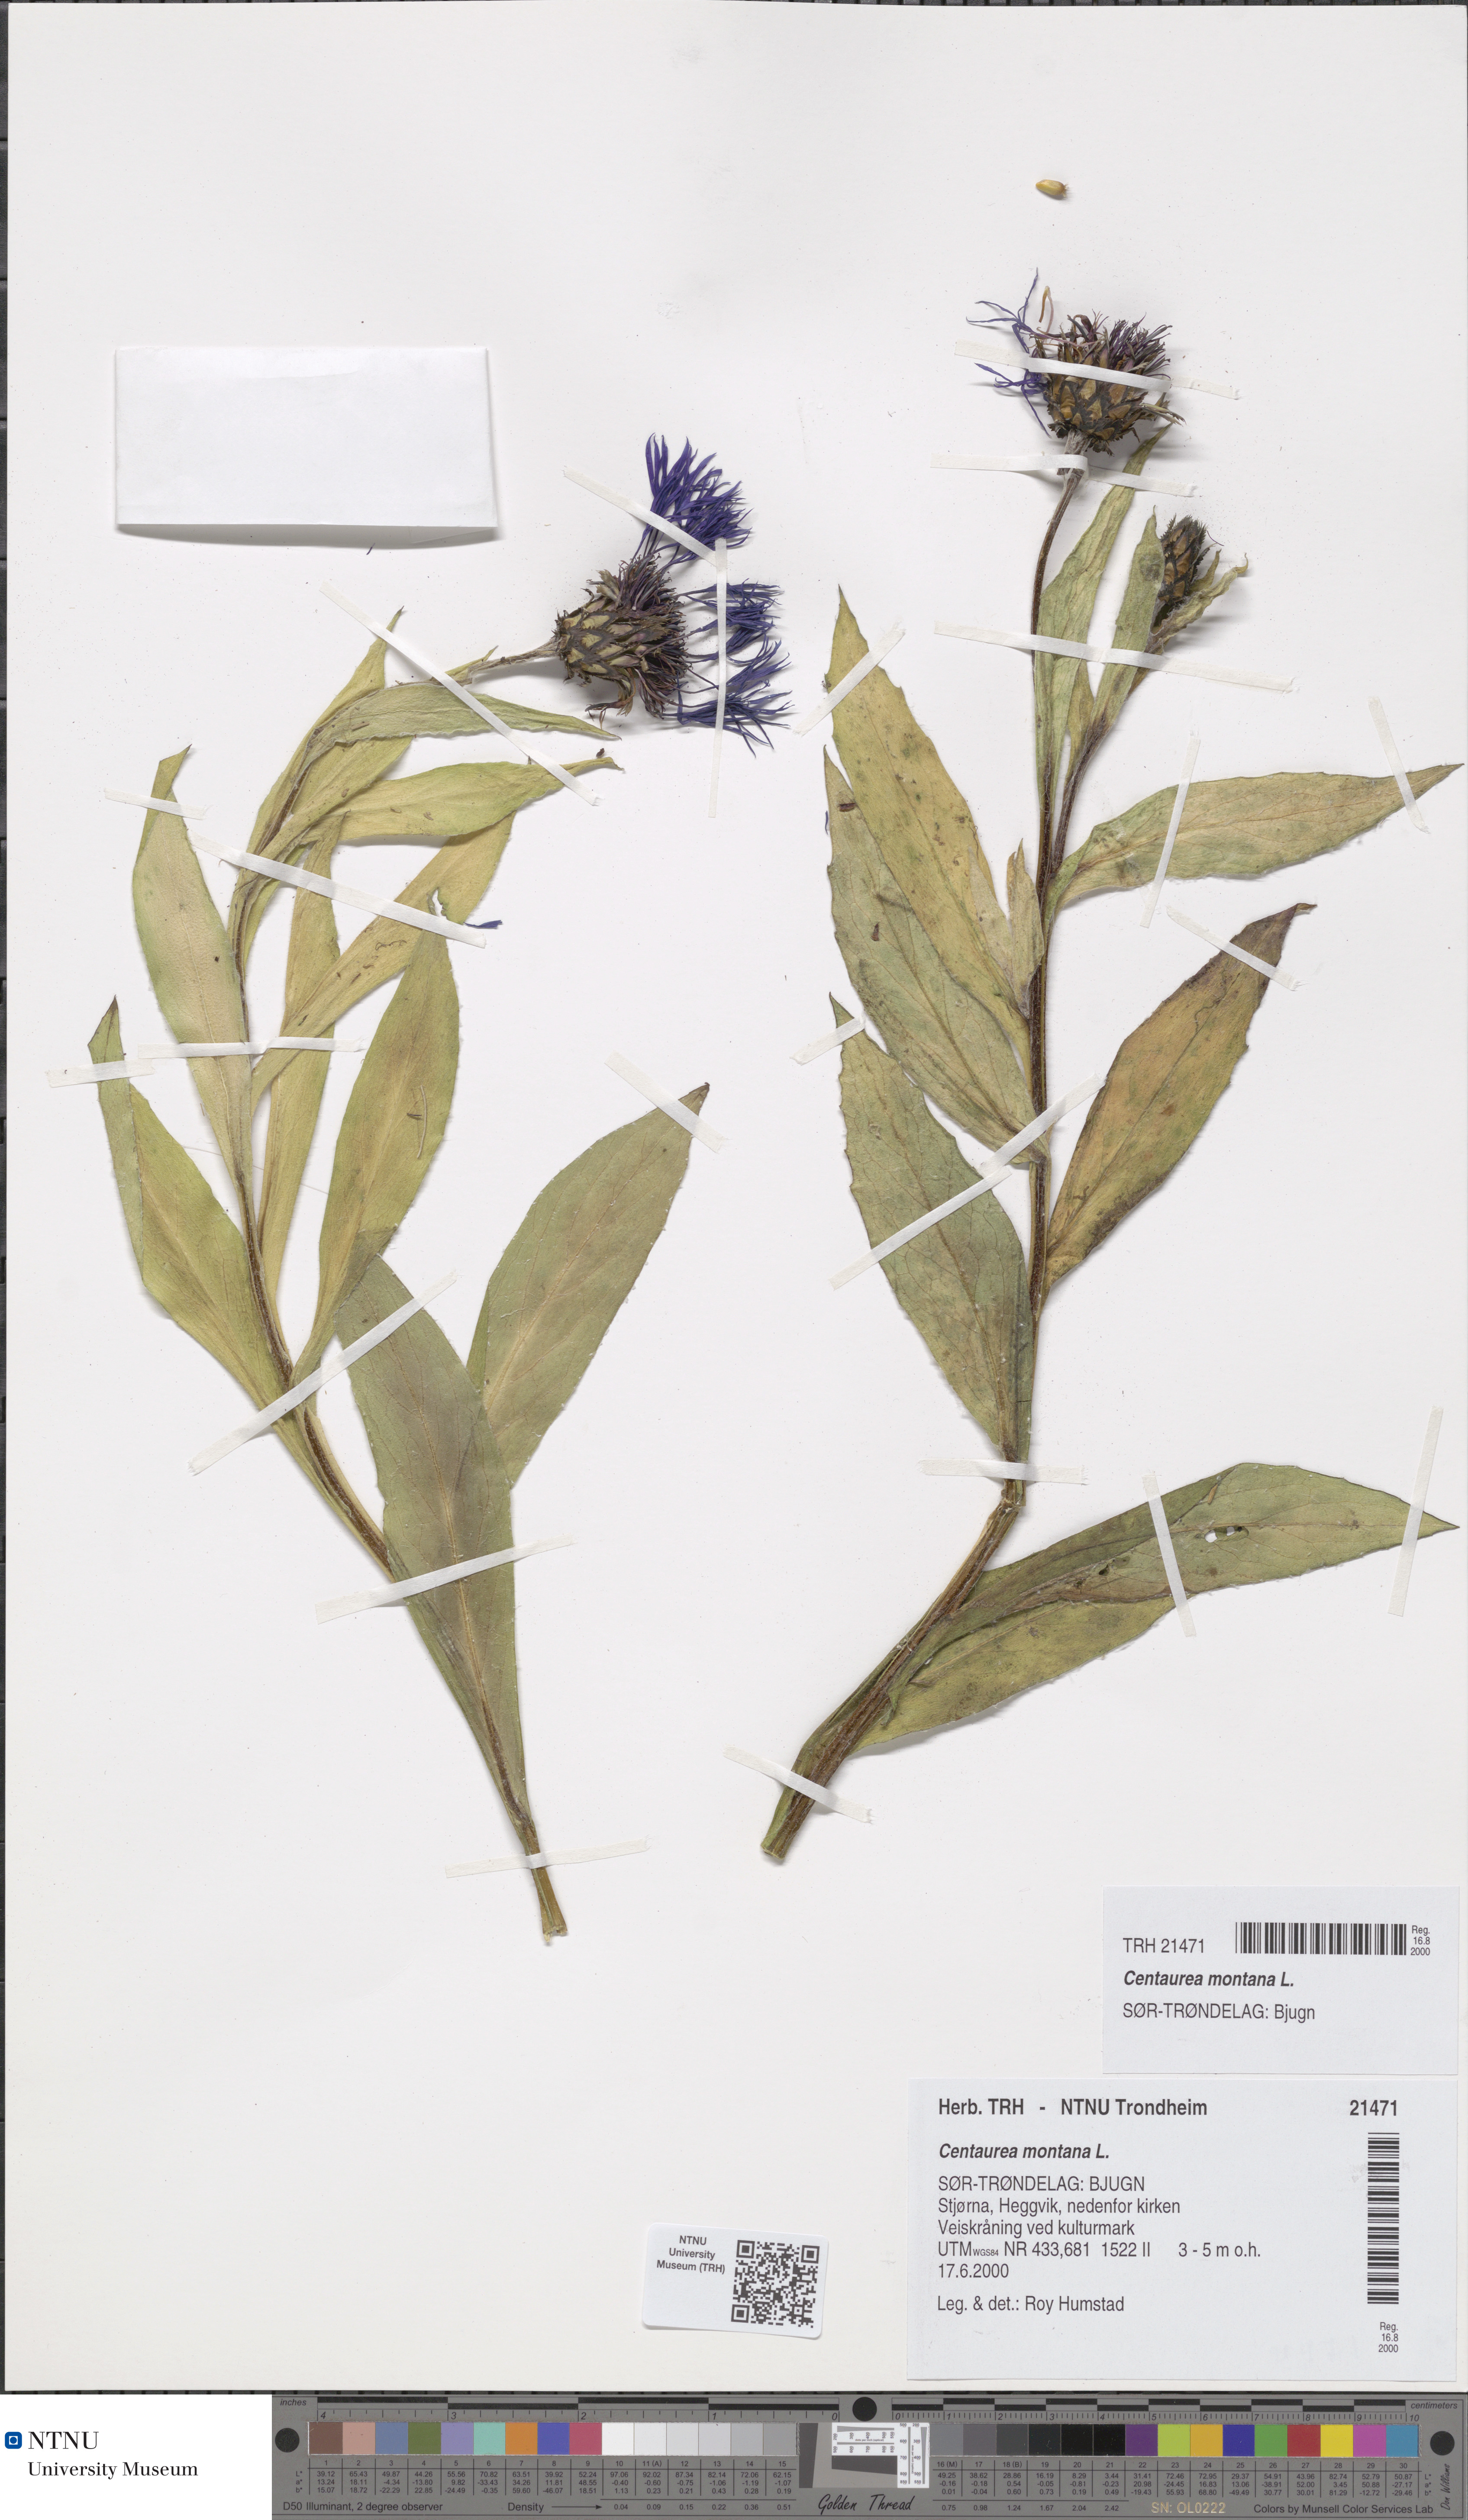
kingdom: Plantae
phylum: Tracheophyta
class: Magnoliopsida
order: Asterales
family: Asteraceae
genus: Centaurea
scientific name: Centaurea montana
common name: Perennial cornflower
